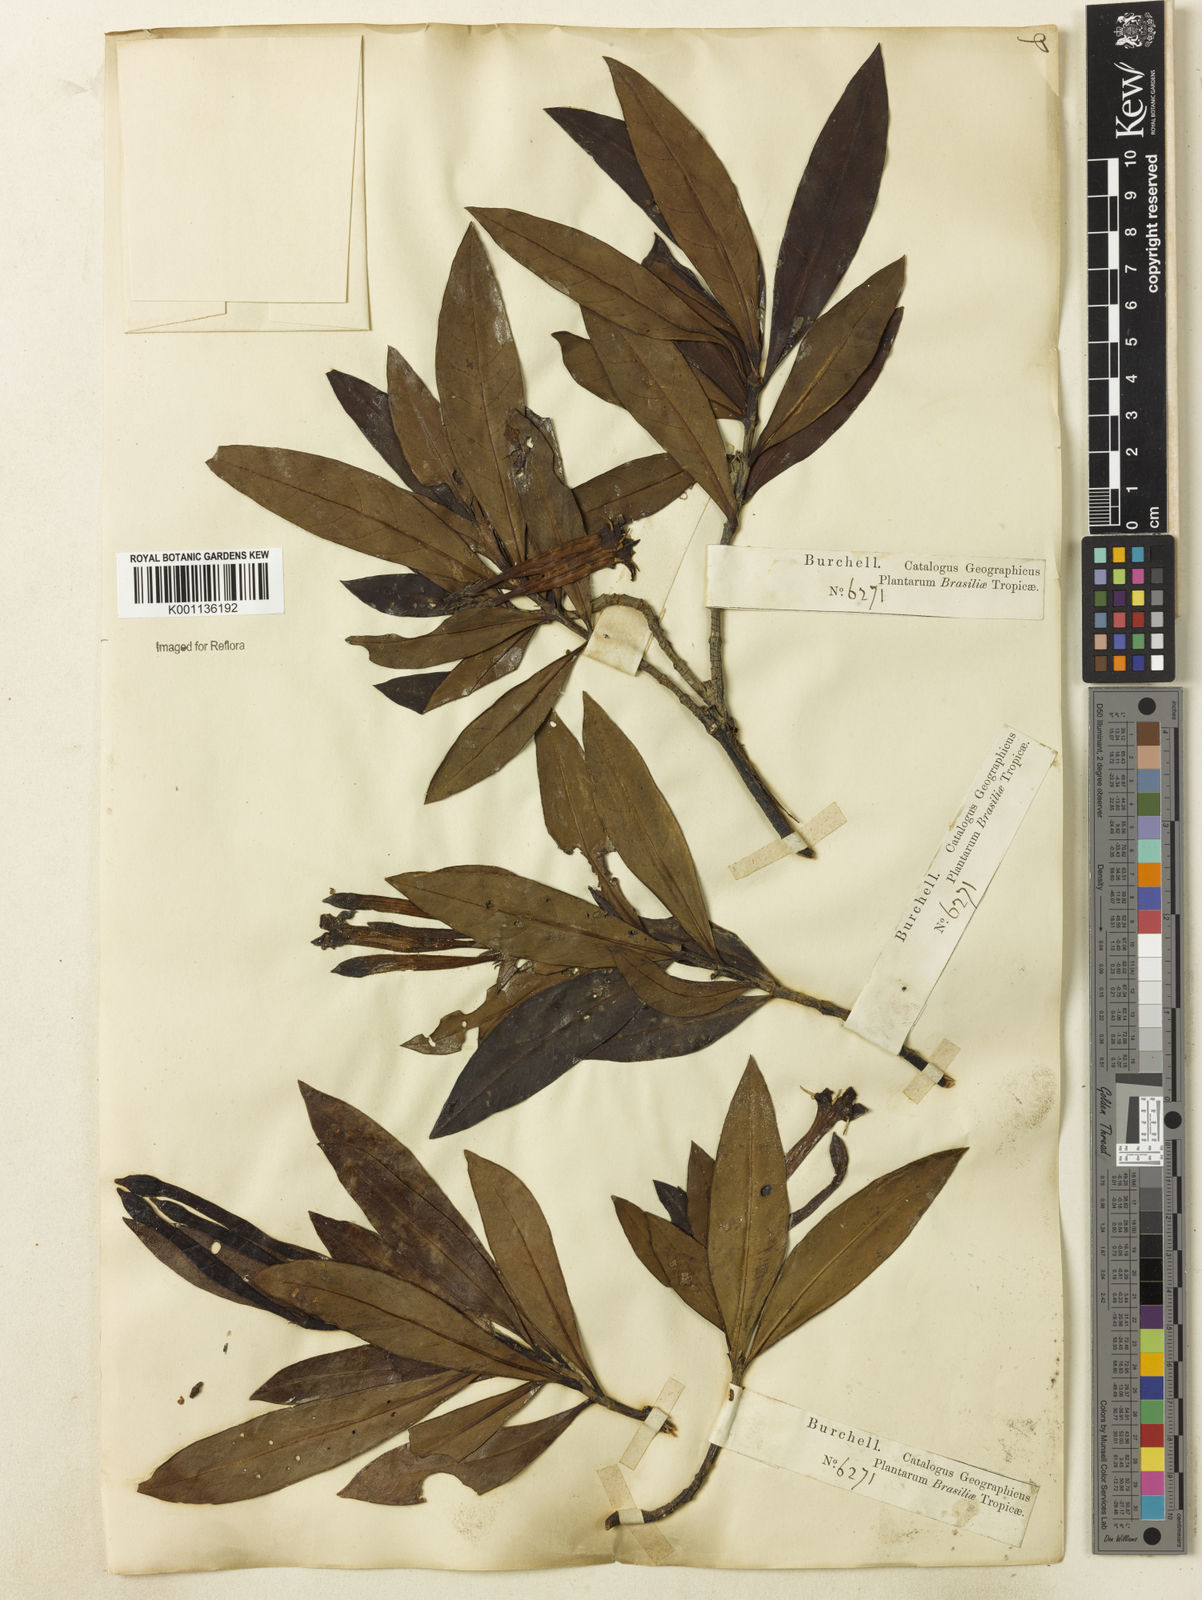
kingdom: Plantae
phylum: Tracheophyta
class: Magnoliopsida
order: Gentianales
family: Rubiaceae
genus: Augusta
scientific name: Augusta longifolia
